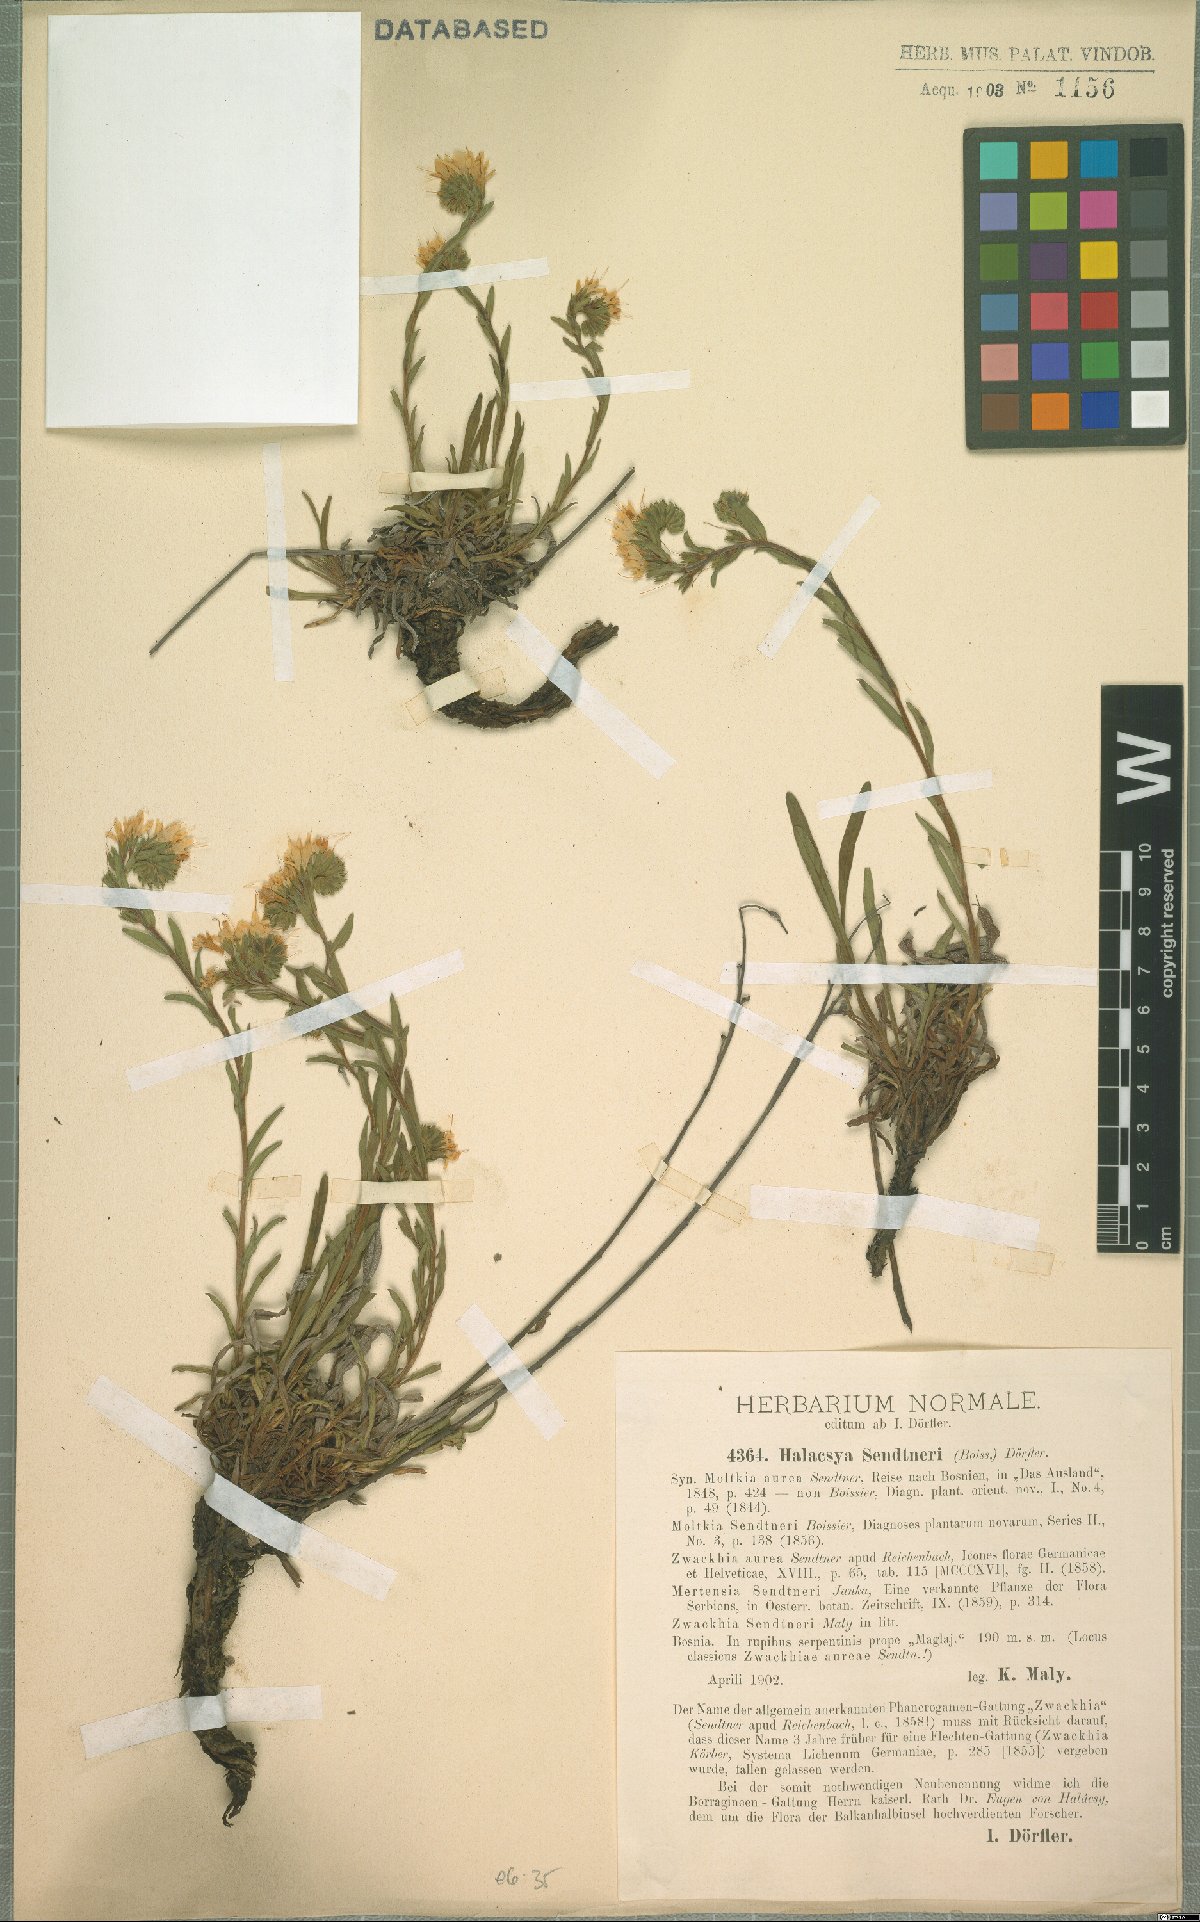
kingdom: Plantae
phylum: Tracheophyta
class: Magnoliopsida
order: Boraginales
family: Boraginaceae
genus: Halacsya
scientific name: Halacsya sendtneri
